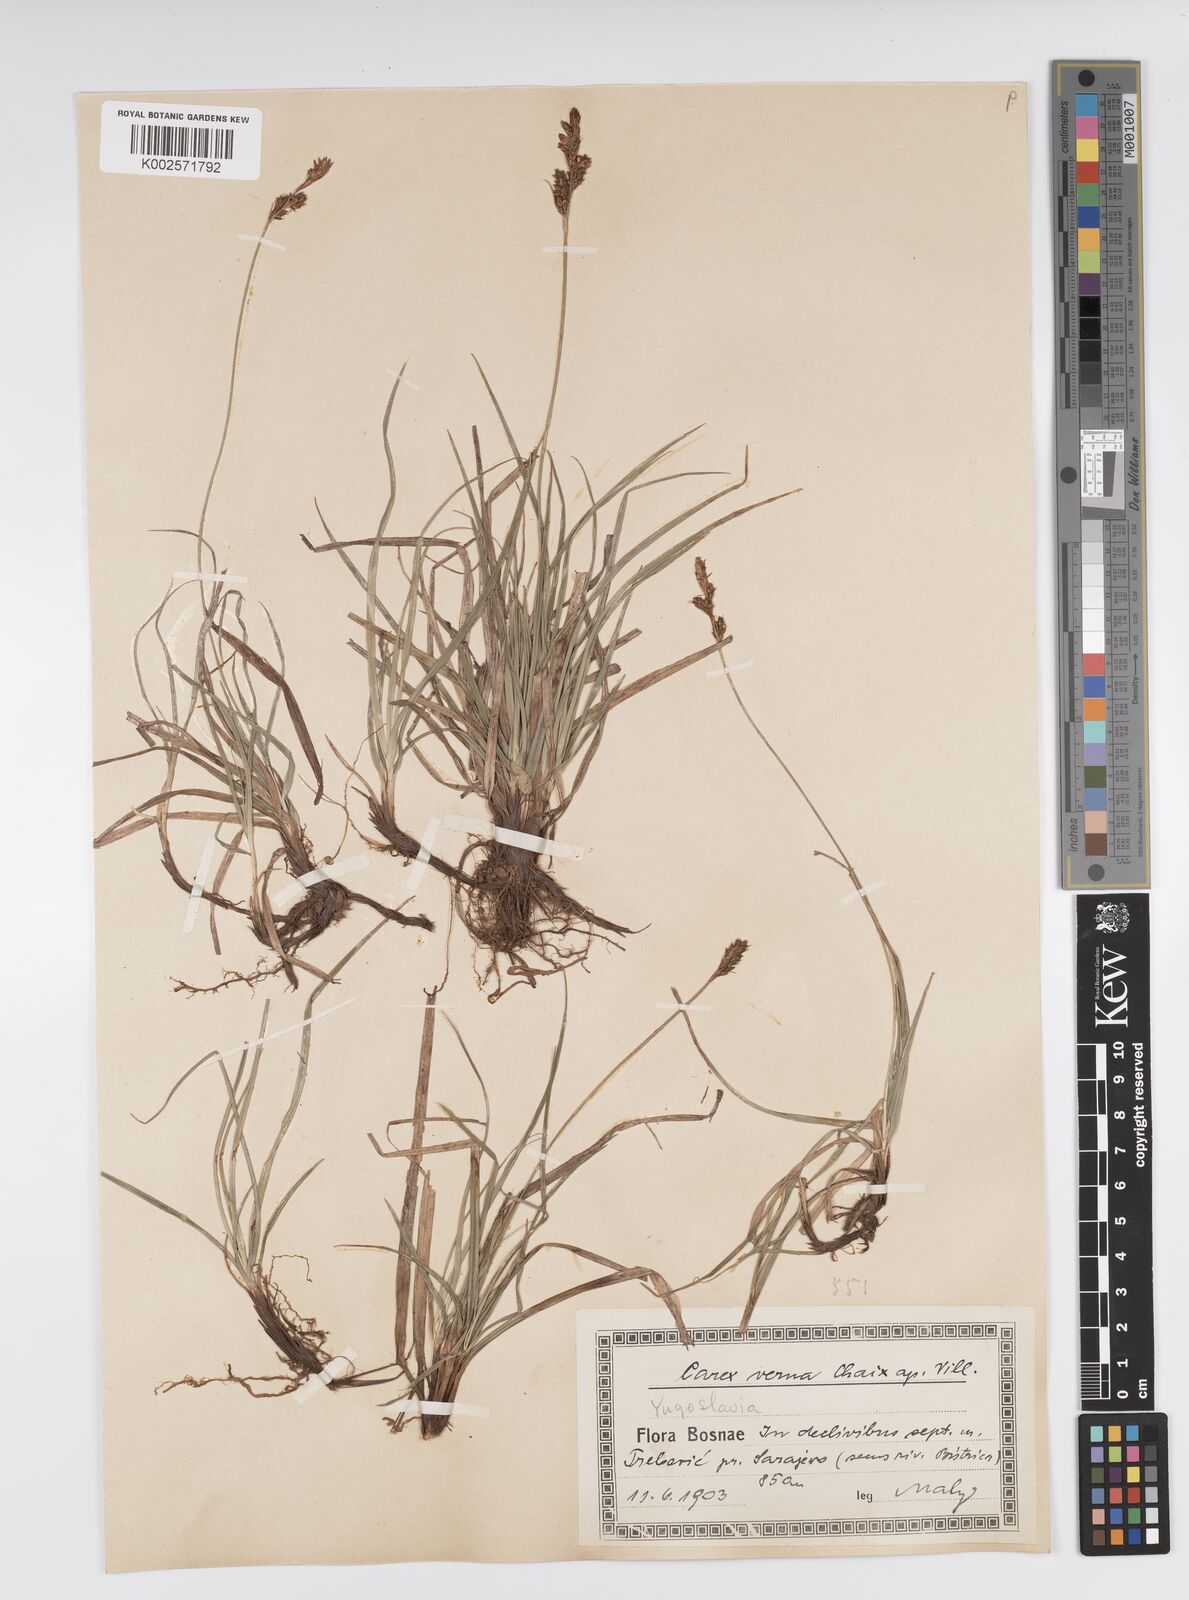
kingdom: Plantae
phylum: Tracheophyta
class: Liliopsida
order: Poales
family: Cyperaceae
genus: Carex
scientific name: Carex caryophyllea
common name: Spring sedge
